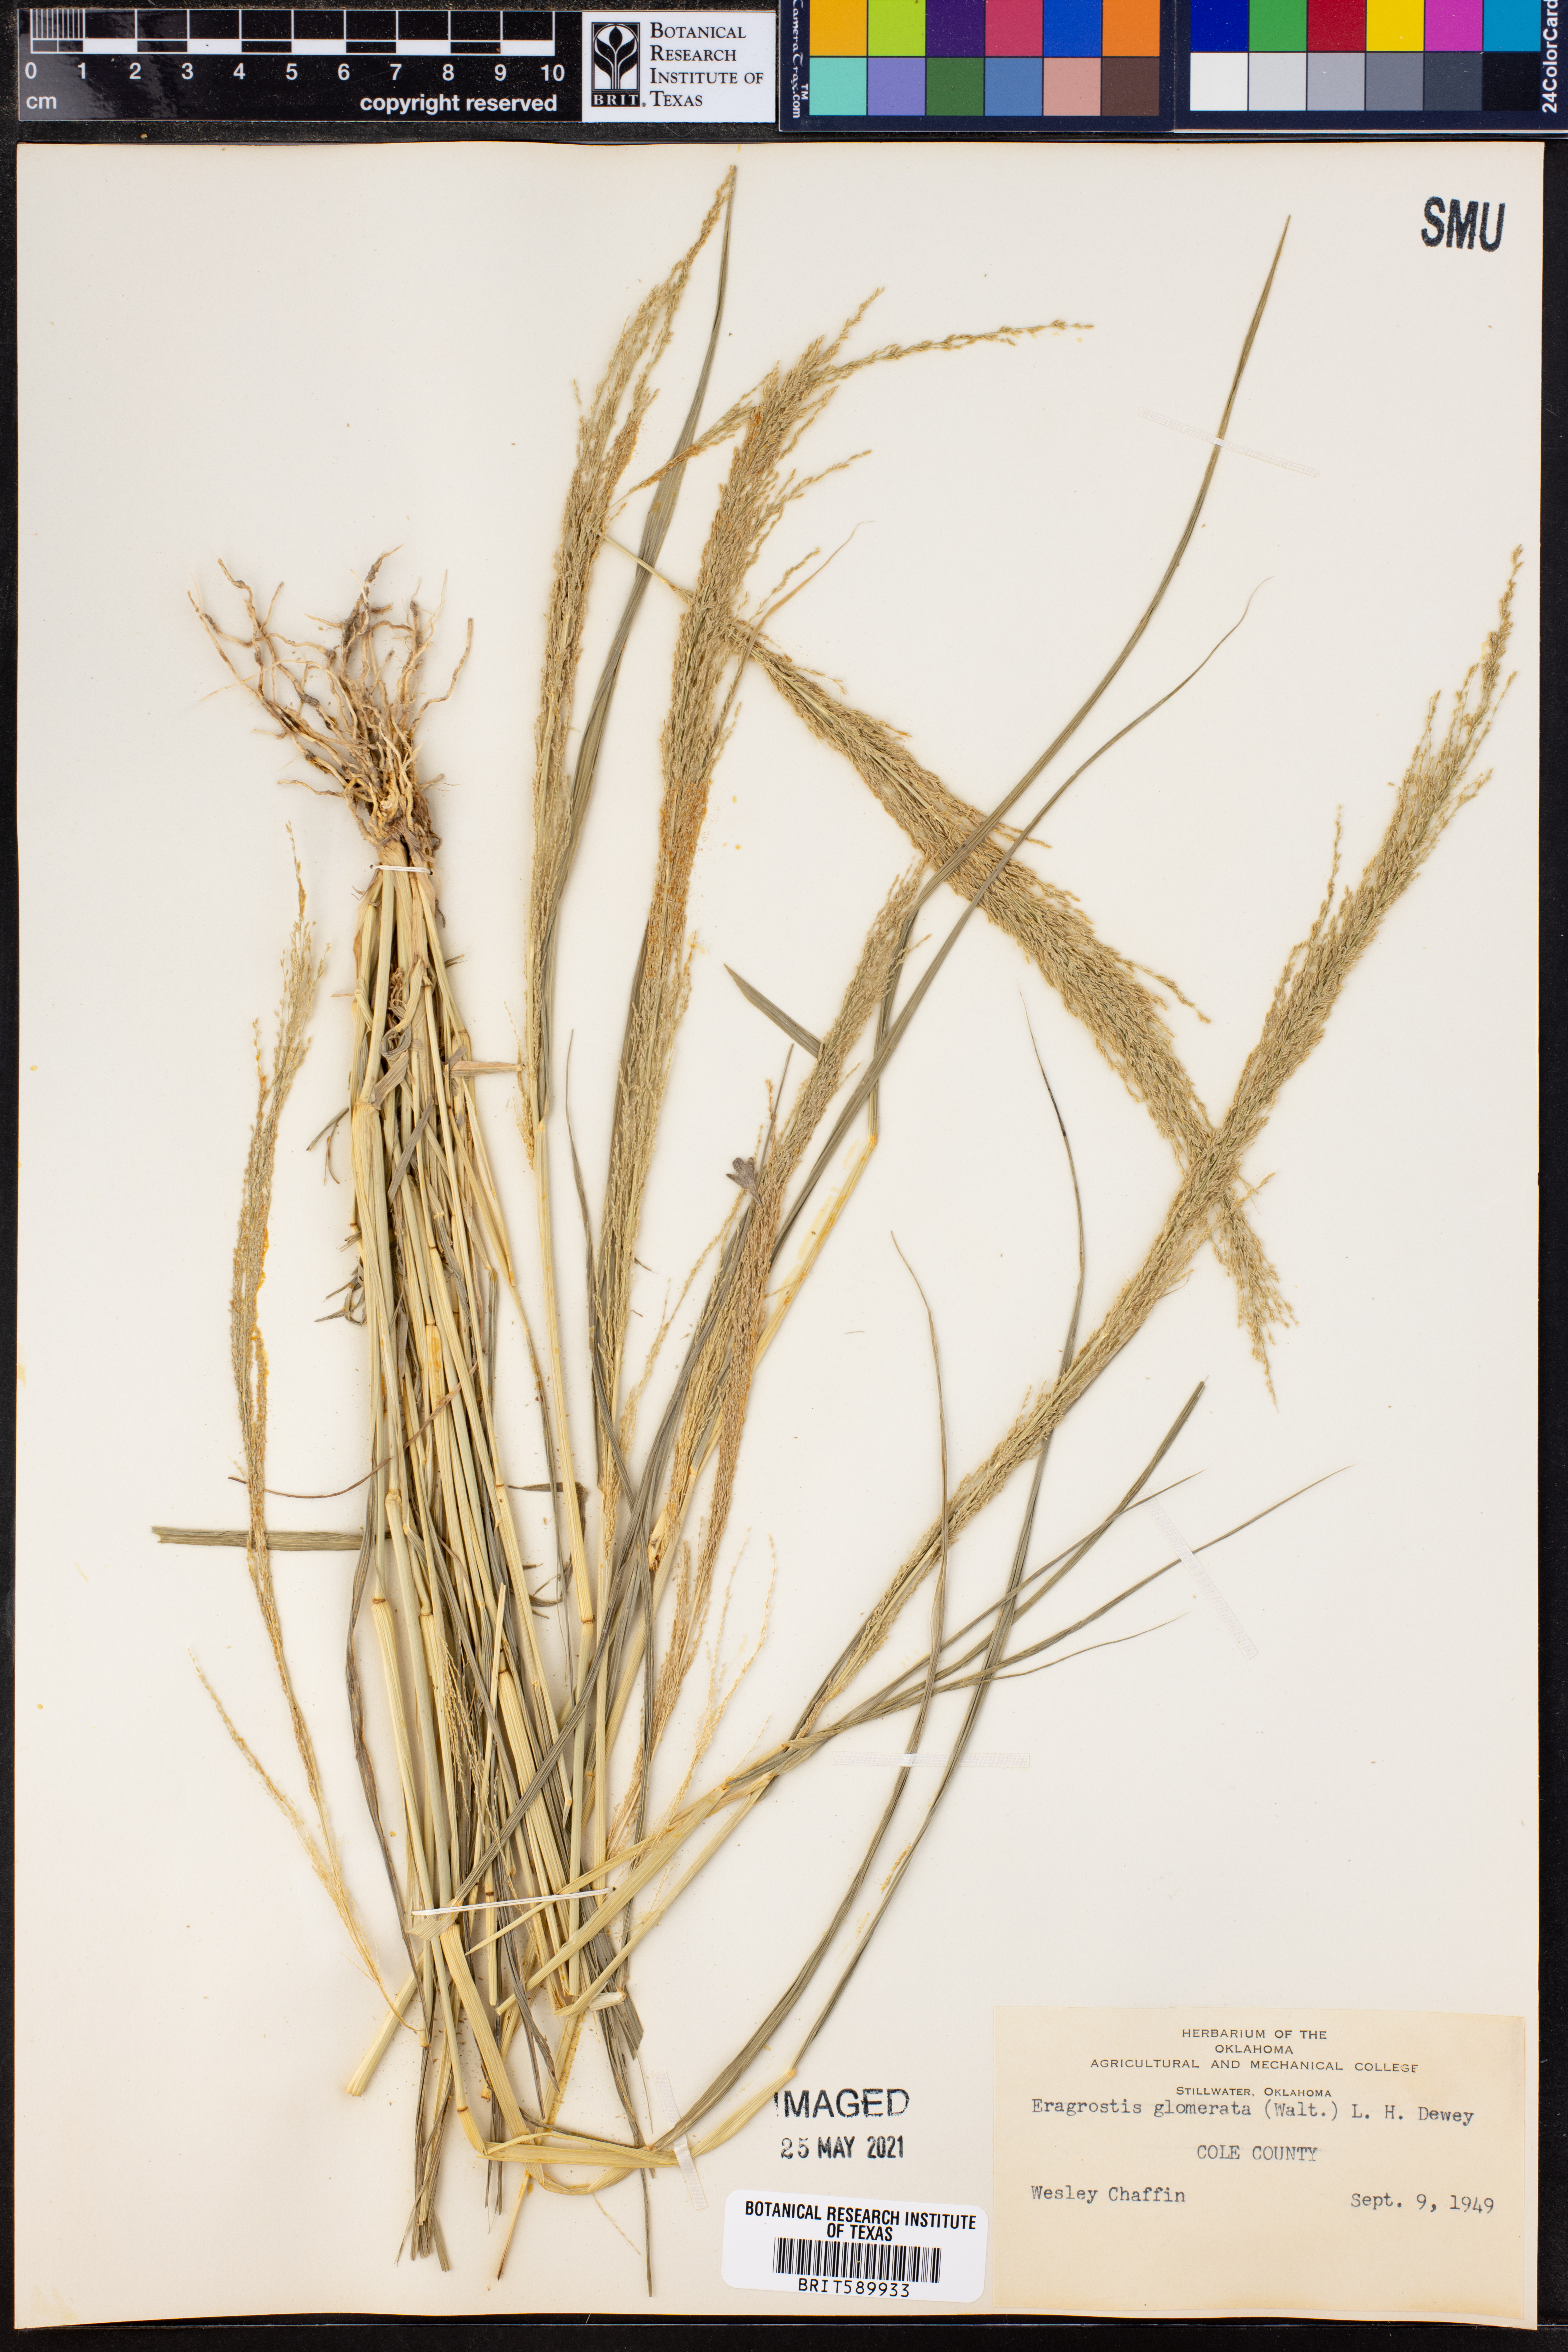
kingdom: Plantae
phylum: Tracheophyta
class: Liliopsida
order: Poales
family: Poaceae
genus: Eragrostis
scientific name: Eragrostis japonica
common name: Pond lovegrass
